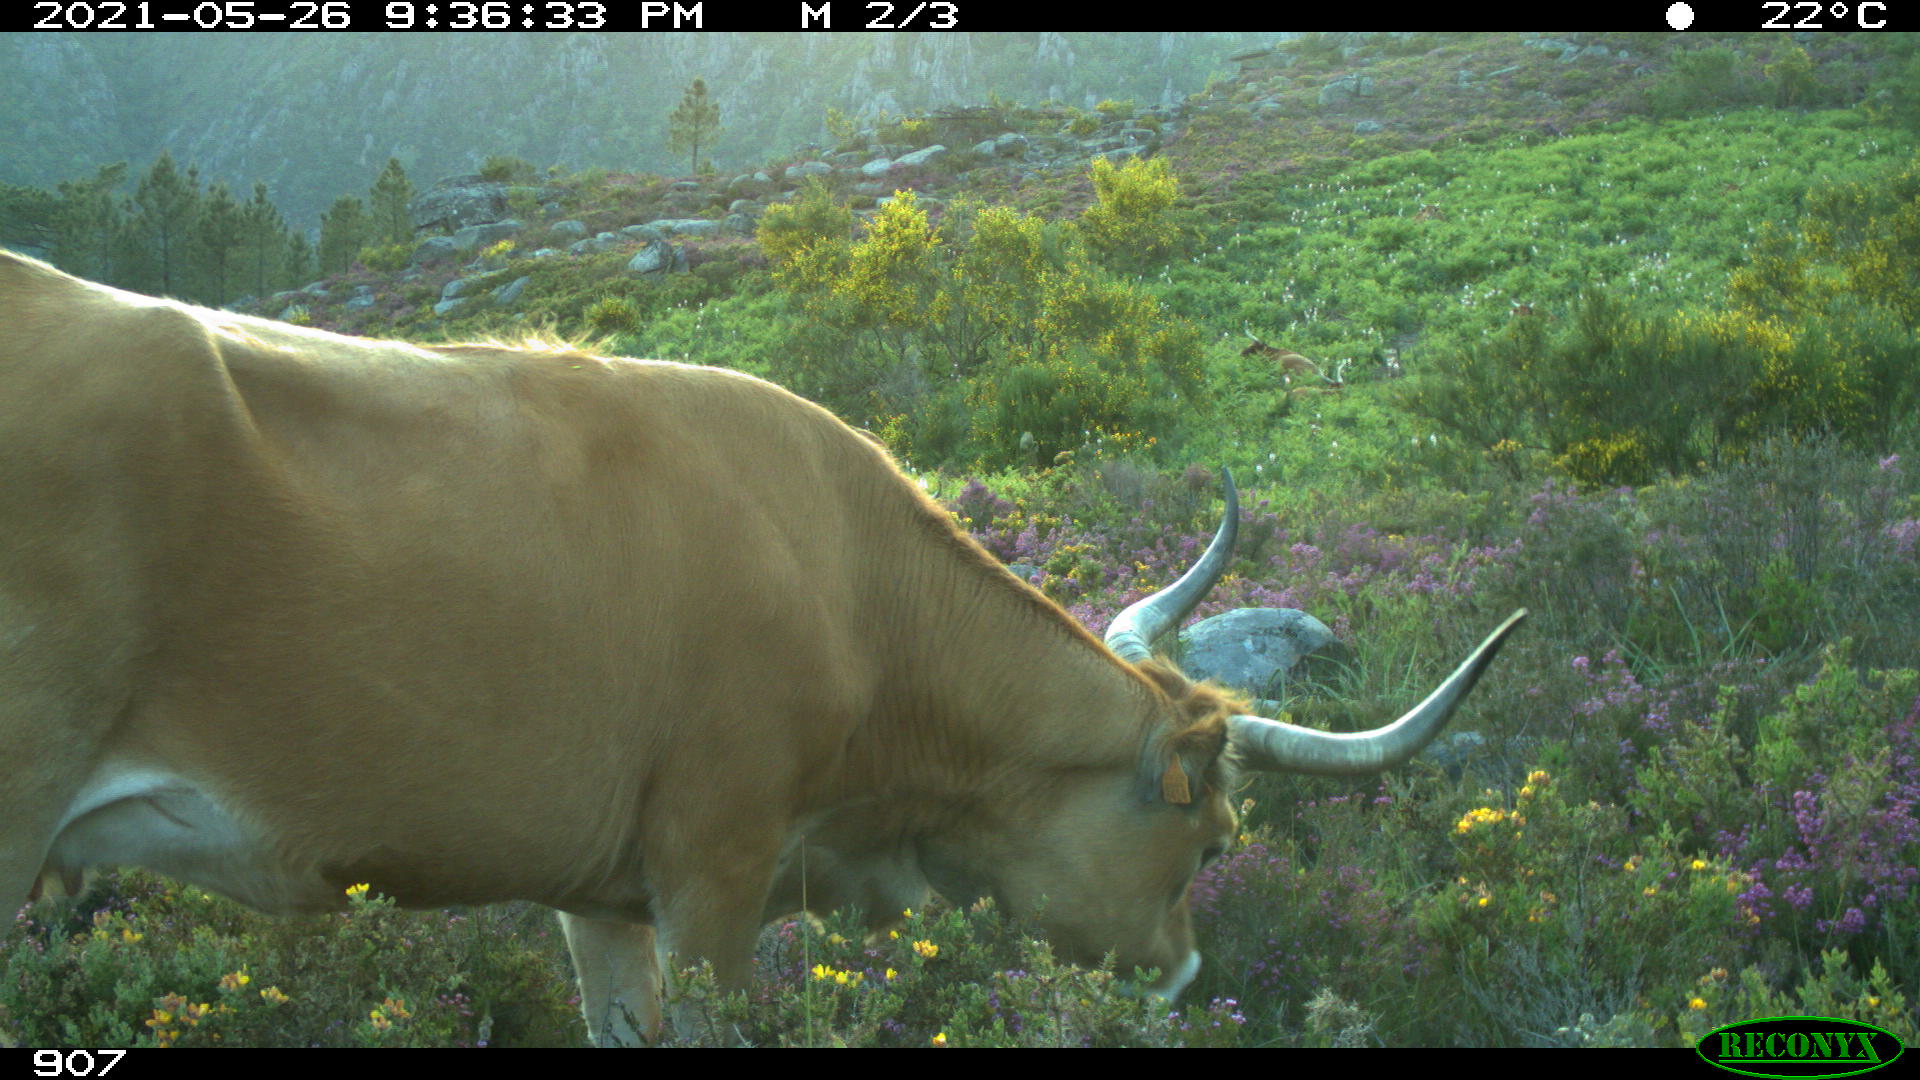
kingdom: Animalia
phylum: Chordata
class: Mammalia
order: Artiodactyla
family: Bovidae
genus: Bos
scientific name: Bos taurus
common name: Domesticated cattle
